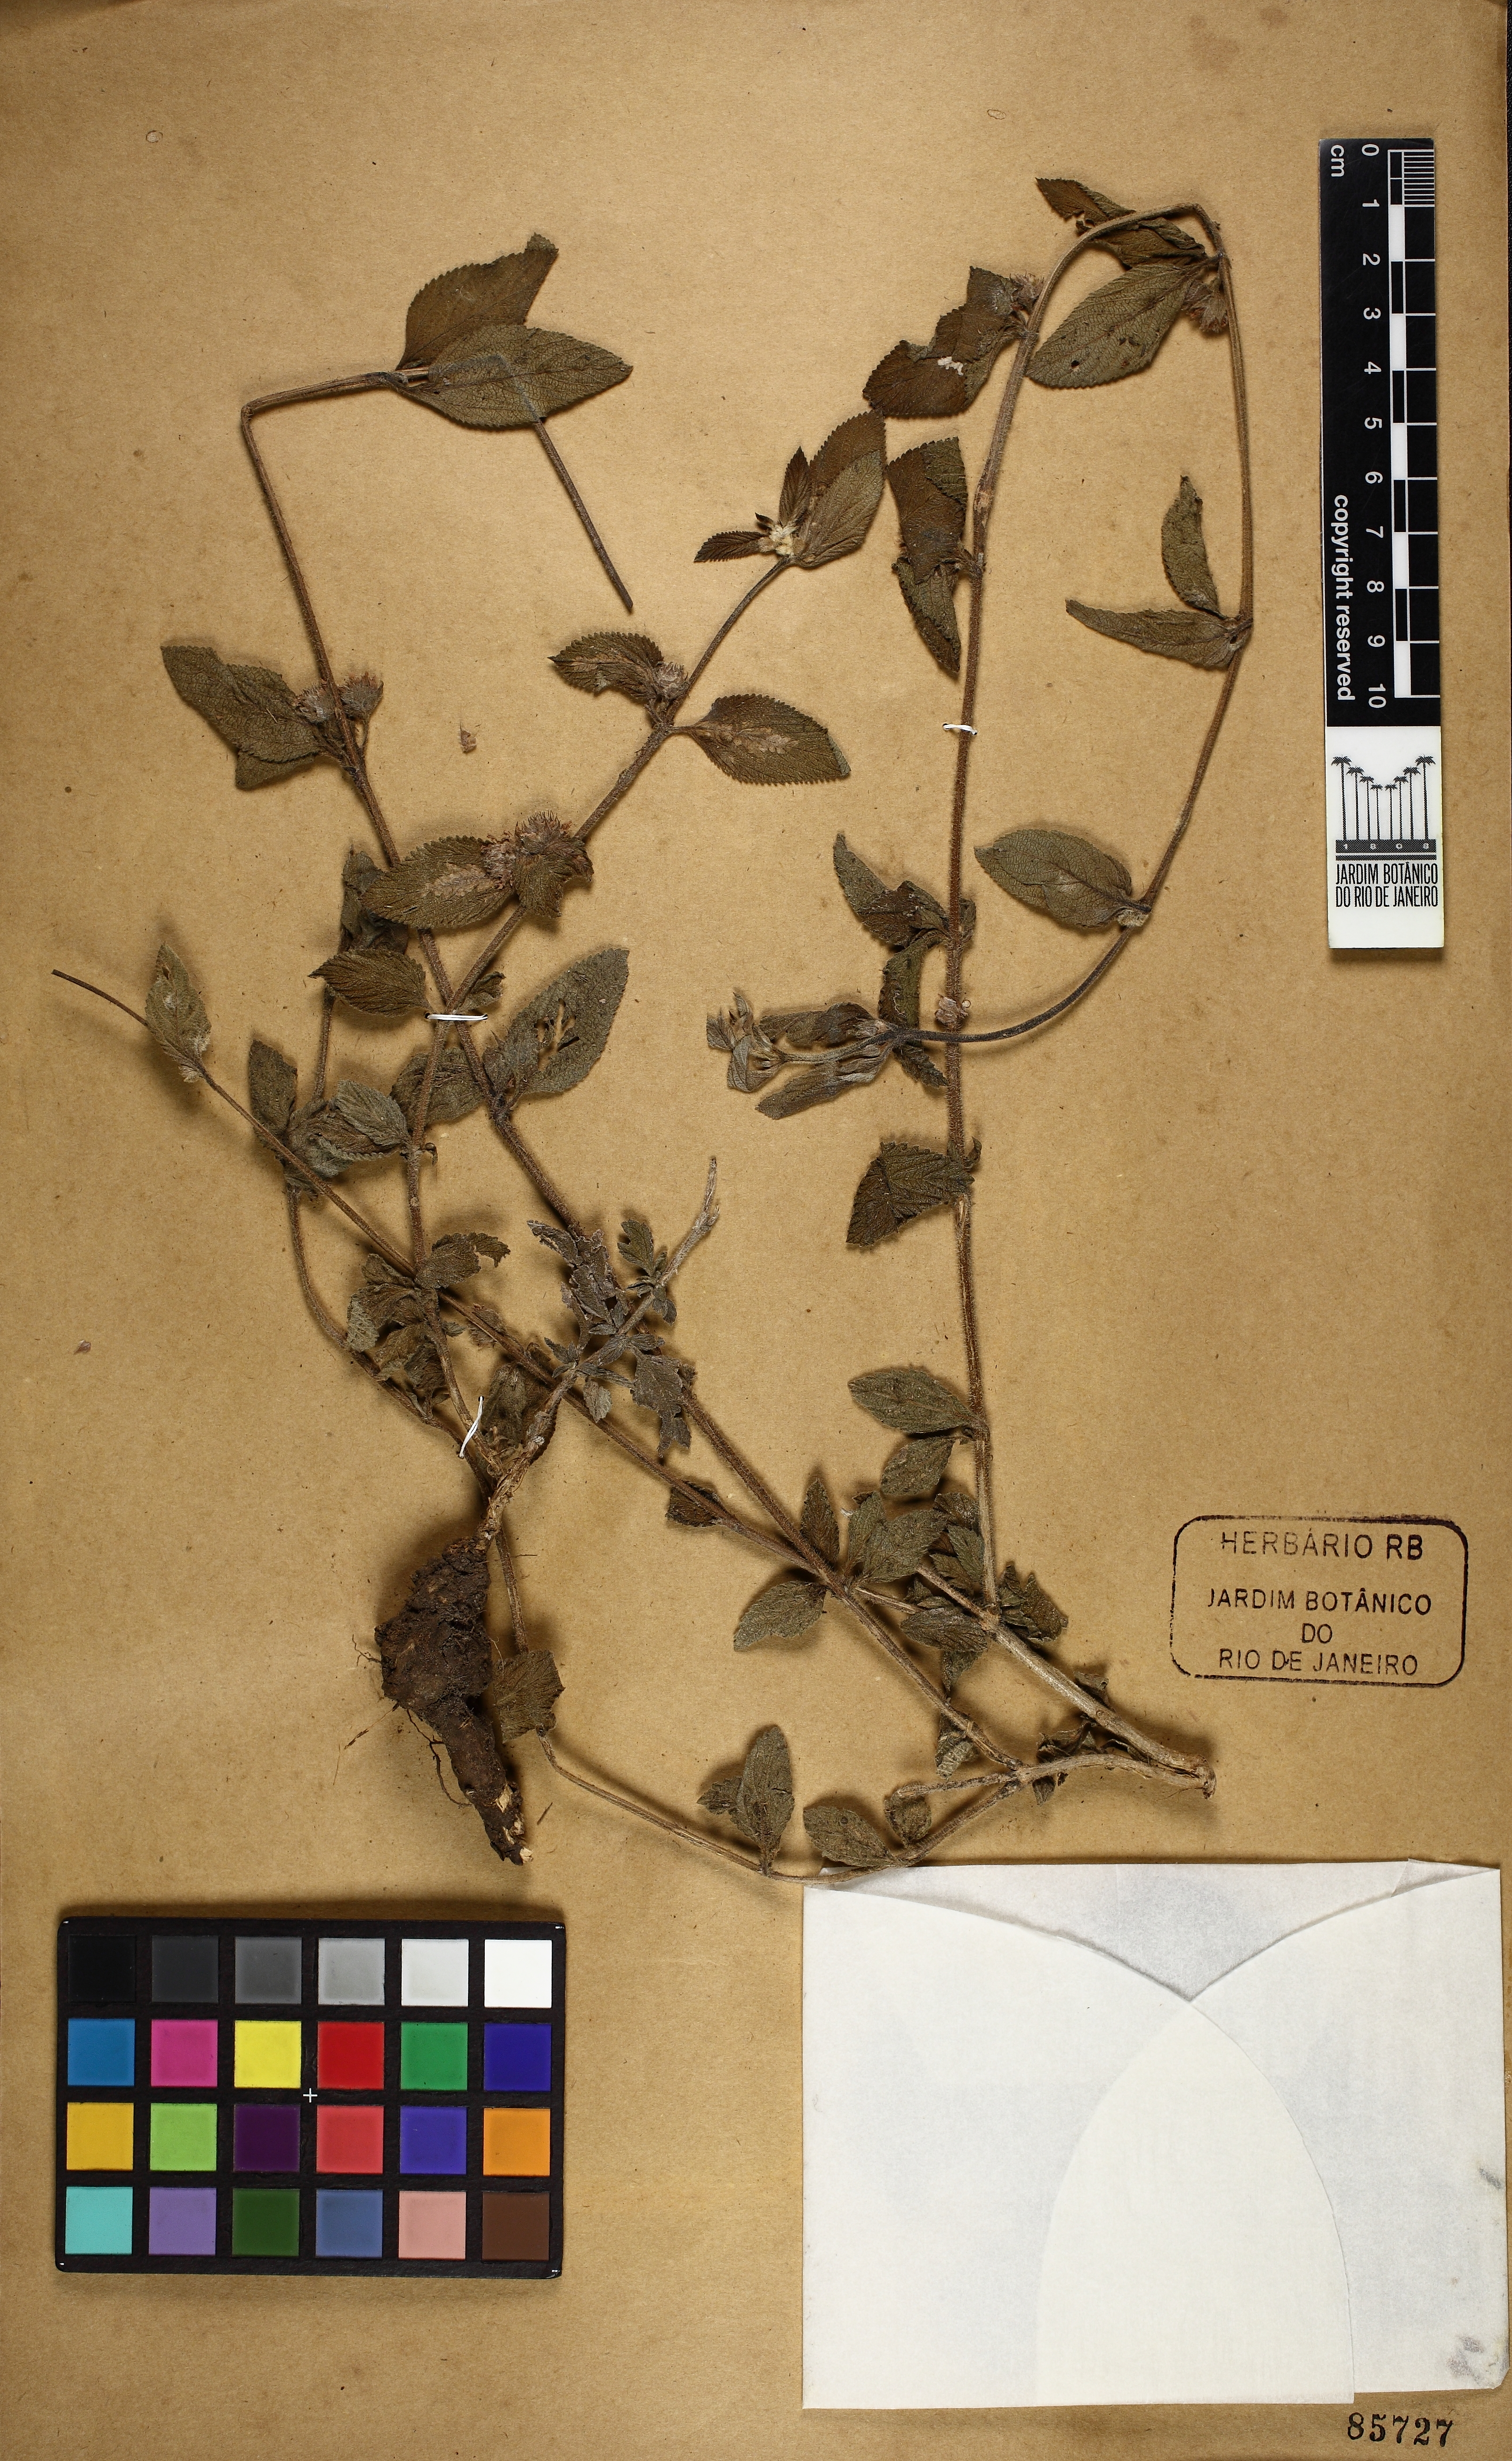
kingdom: Plantae
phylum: Tracheophyta
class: Magnoliopsida
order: Lamiales
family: Verbenaceae
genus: Lantana
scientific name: Lantana
